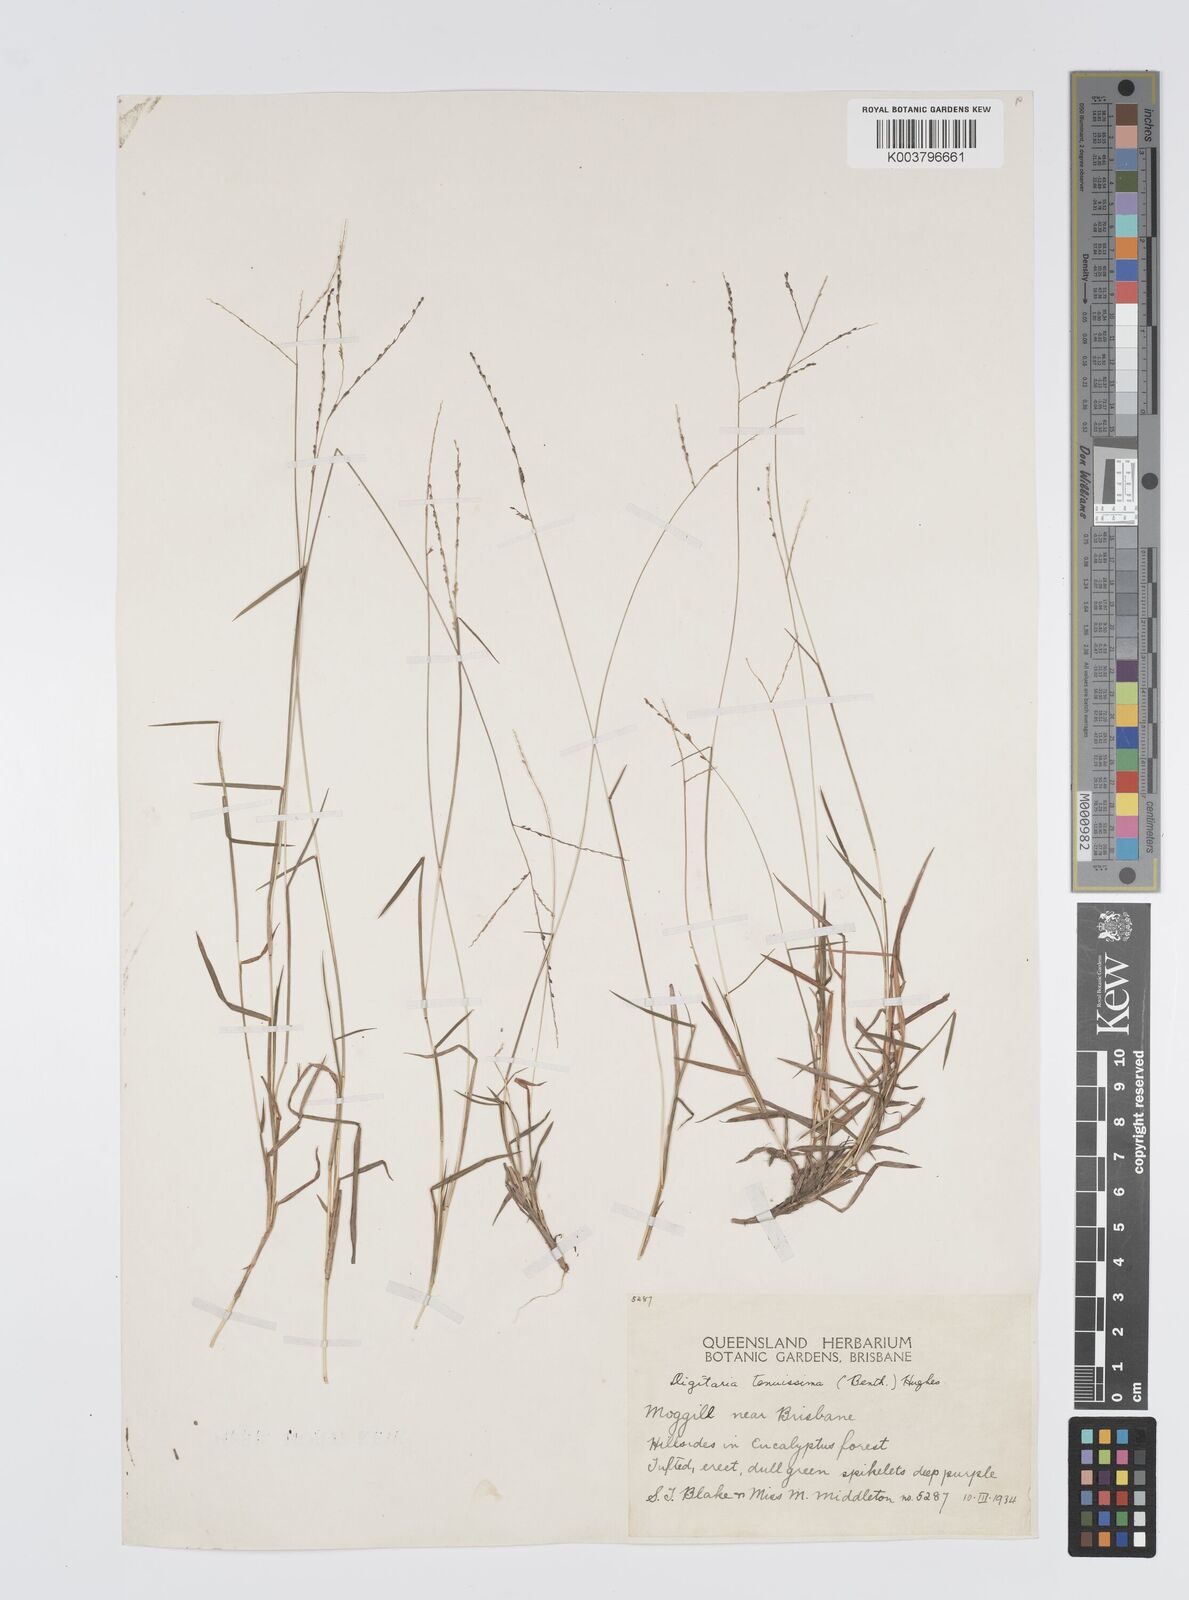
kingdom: Plantae
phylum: Tracheophyta
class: Liliopsida
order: Poales
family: Poaceae
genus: Digitaria
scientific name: Digitaria ramularis
